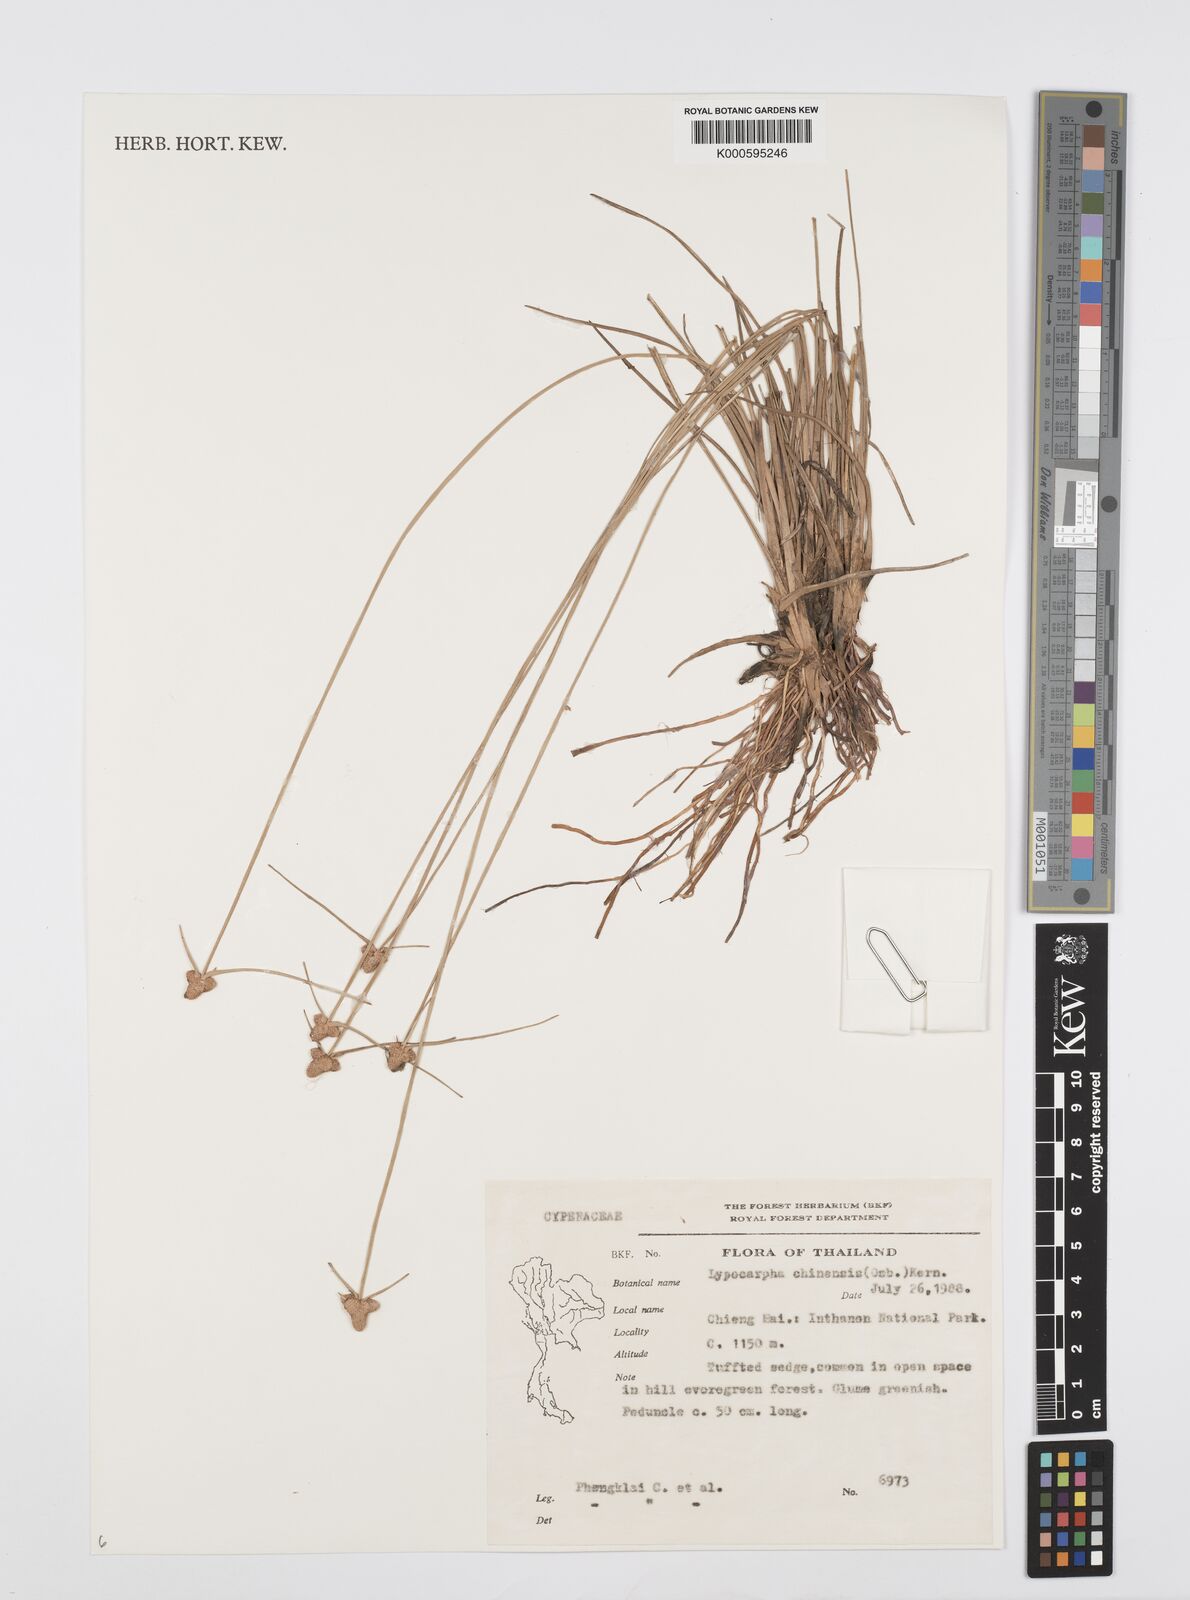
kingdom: Plantae
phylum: Tracheophyta
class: Liliopsida
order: Poales
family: Cyperaceae
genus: Cyperus
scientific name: Cyperus albescens
